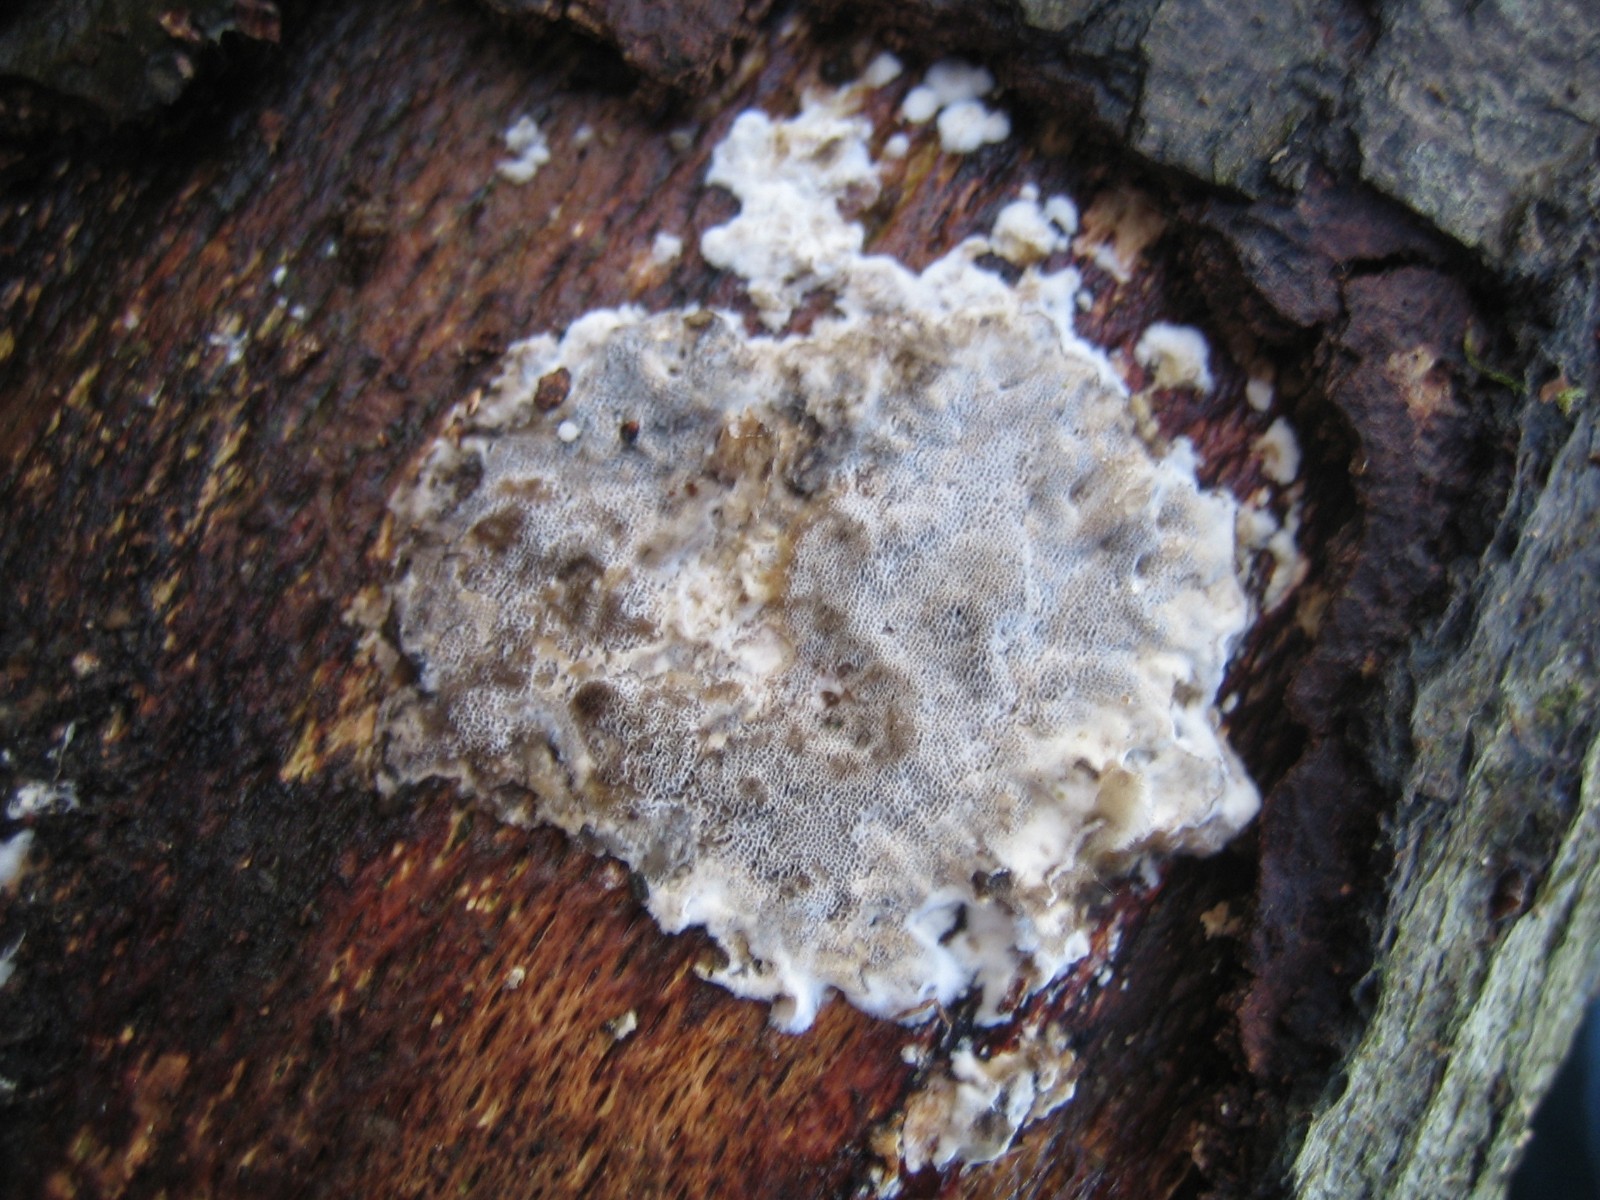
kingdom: Fungi
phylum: Basidiomycota
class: Agaricomycetes
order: Polyporales
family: Phanerochaetaceae
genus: Bjerkandera
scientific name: Bjerkandera adusta
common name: sveden sodporesvamp
